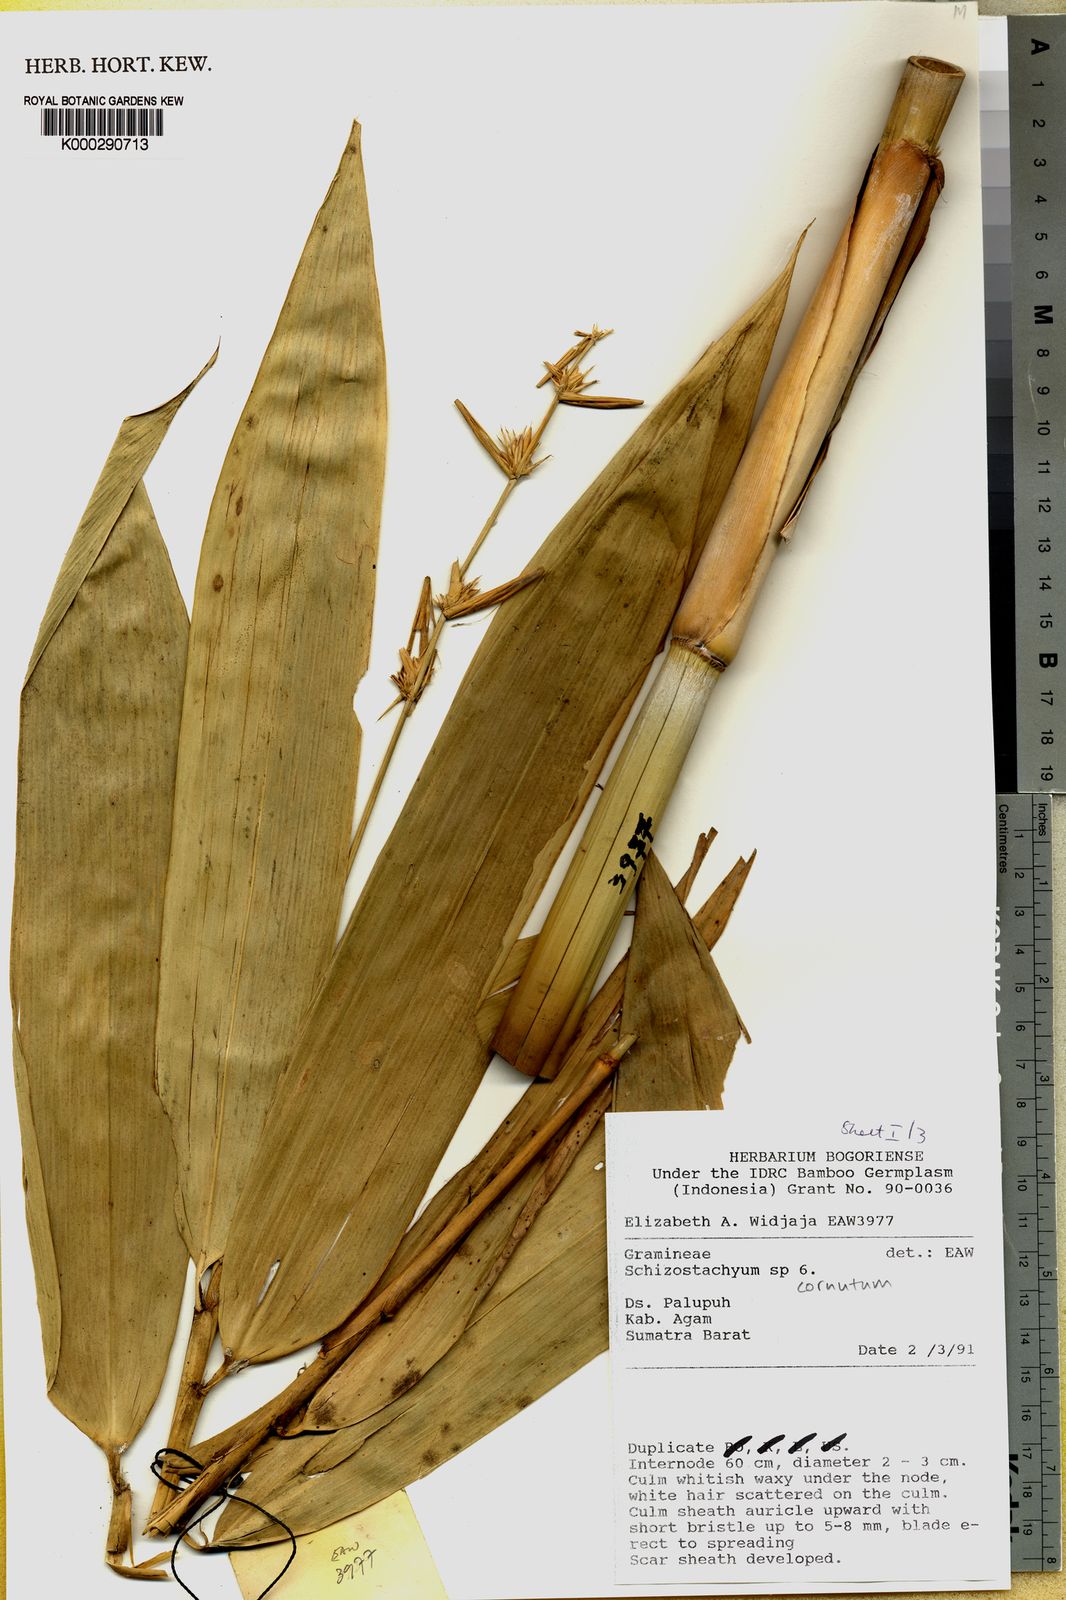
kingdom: Plantae
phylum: Tracheophyta
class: Liliopsida
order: Poales
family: Poaceae
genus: Schizostachyum
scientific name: Schizostachyum cornutum
